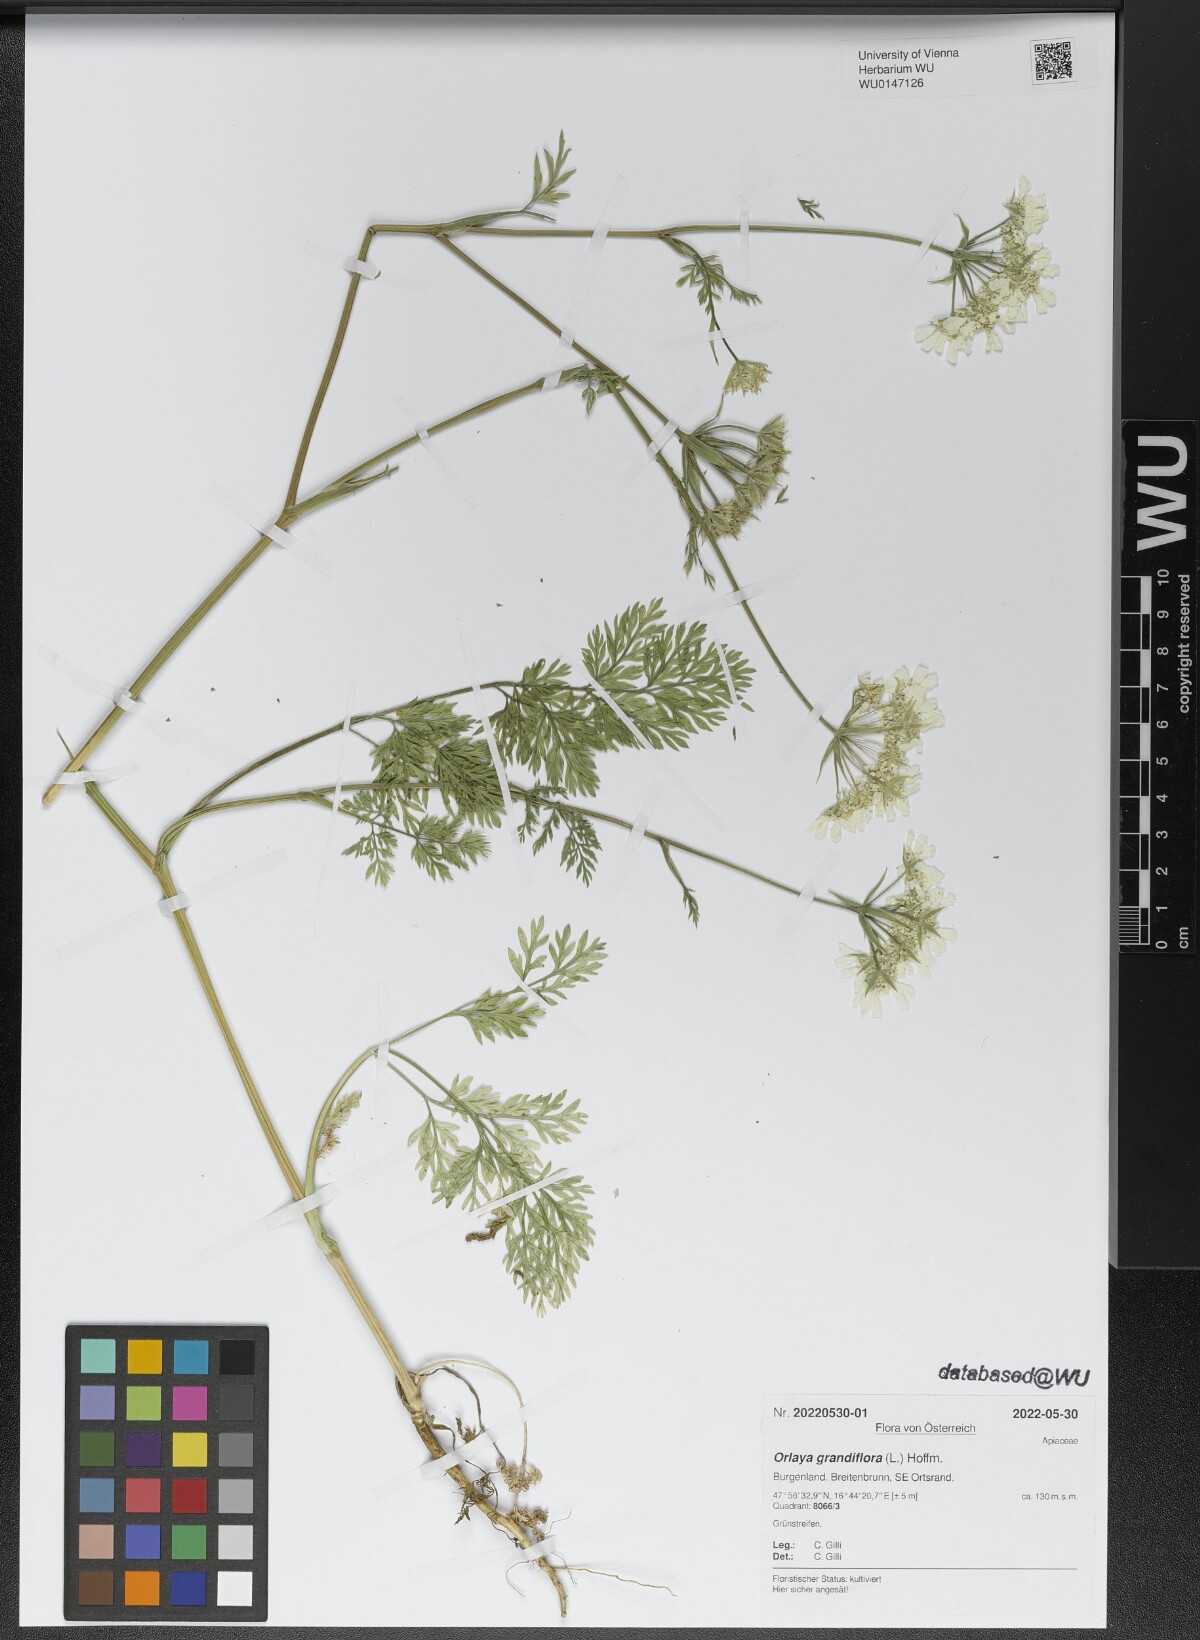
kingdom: Plantae
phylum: Tracheophyta
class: Magnoliopsida
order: Apiales
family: Apiaceae
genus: Orlaya
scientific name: Orlaya grandiflora
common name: White lace flower
